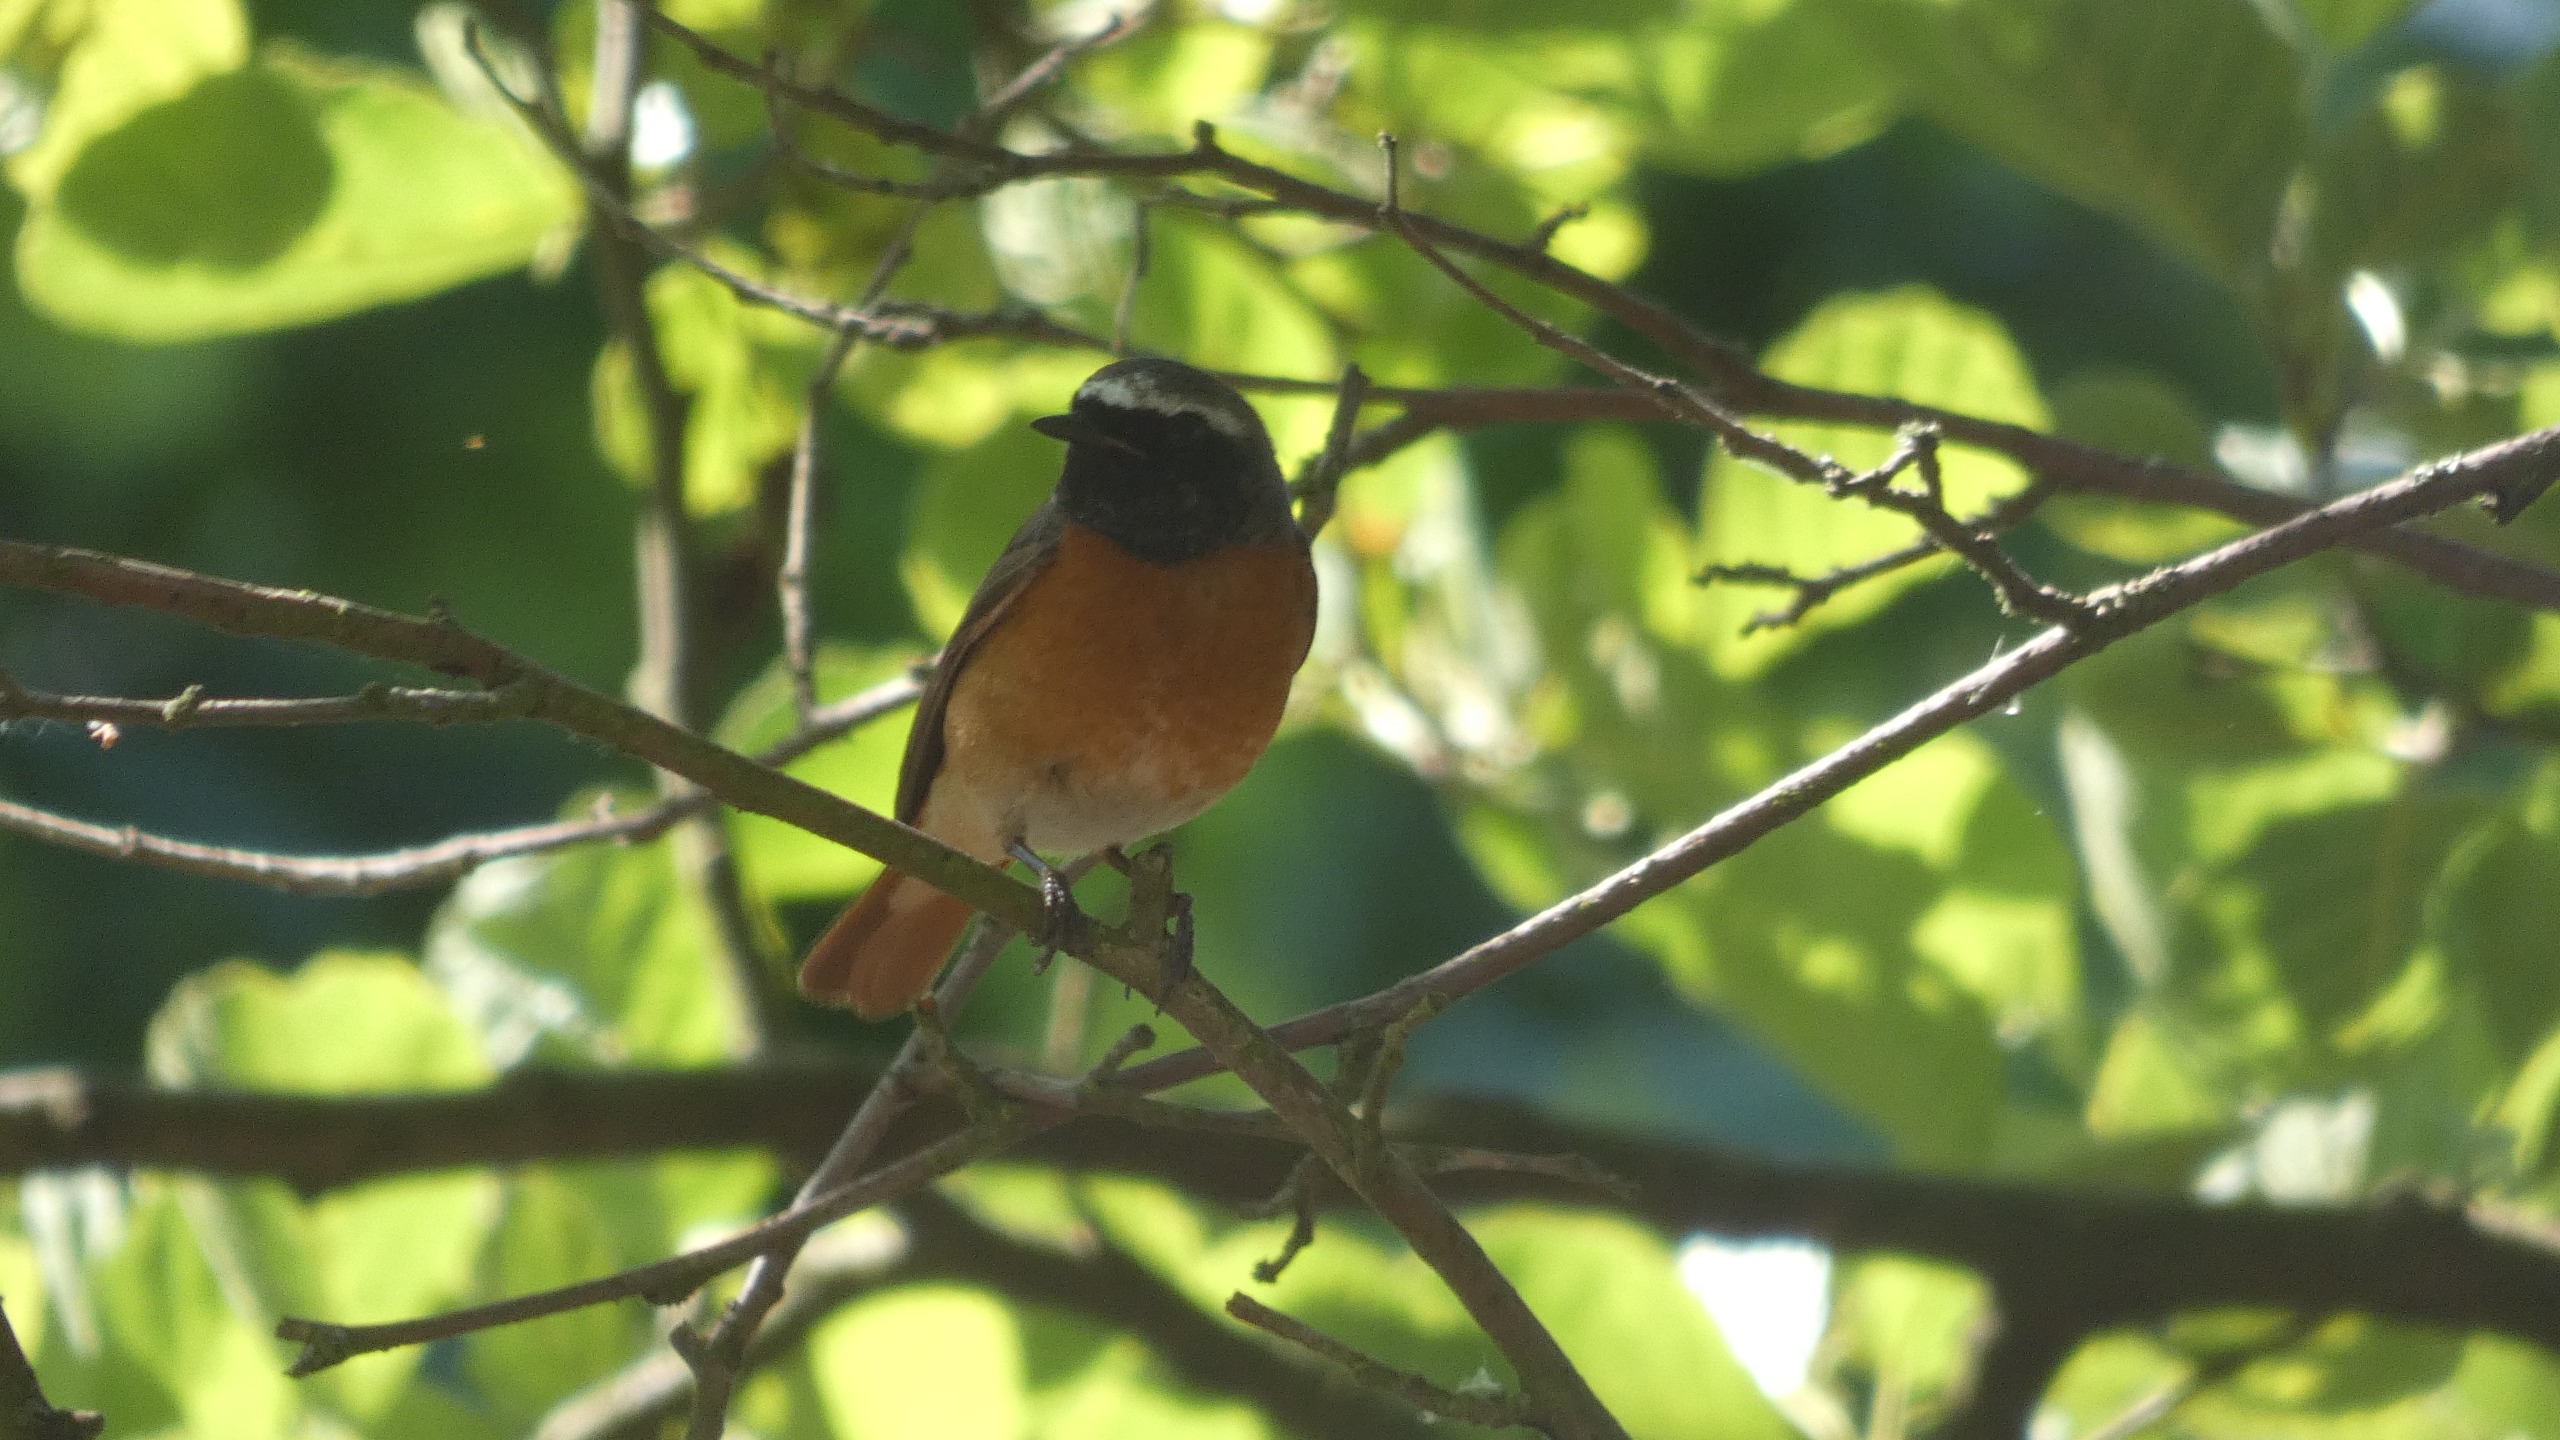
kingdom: Animalia
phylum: Chordata
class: Aves
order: Passeriformes
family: Muscicapidae
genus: Phoenicurus
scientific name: Phoenicurus phoenicurus
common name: Rødstjert
